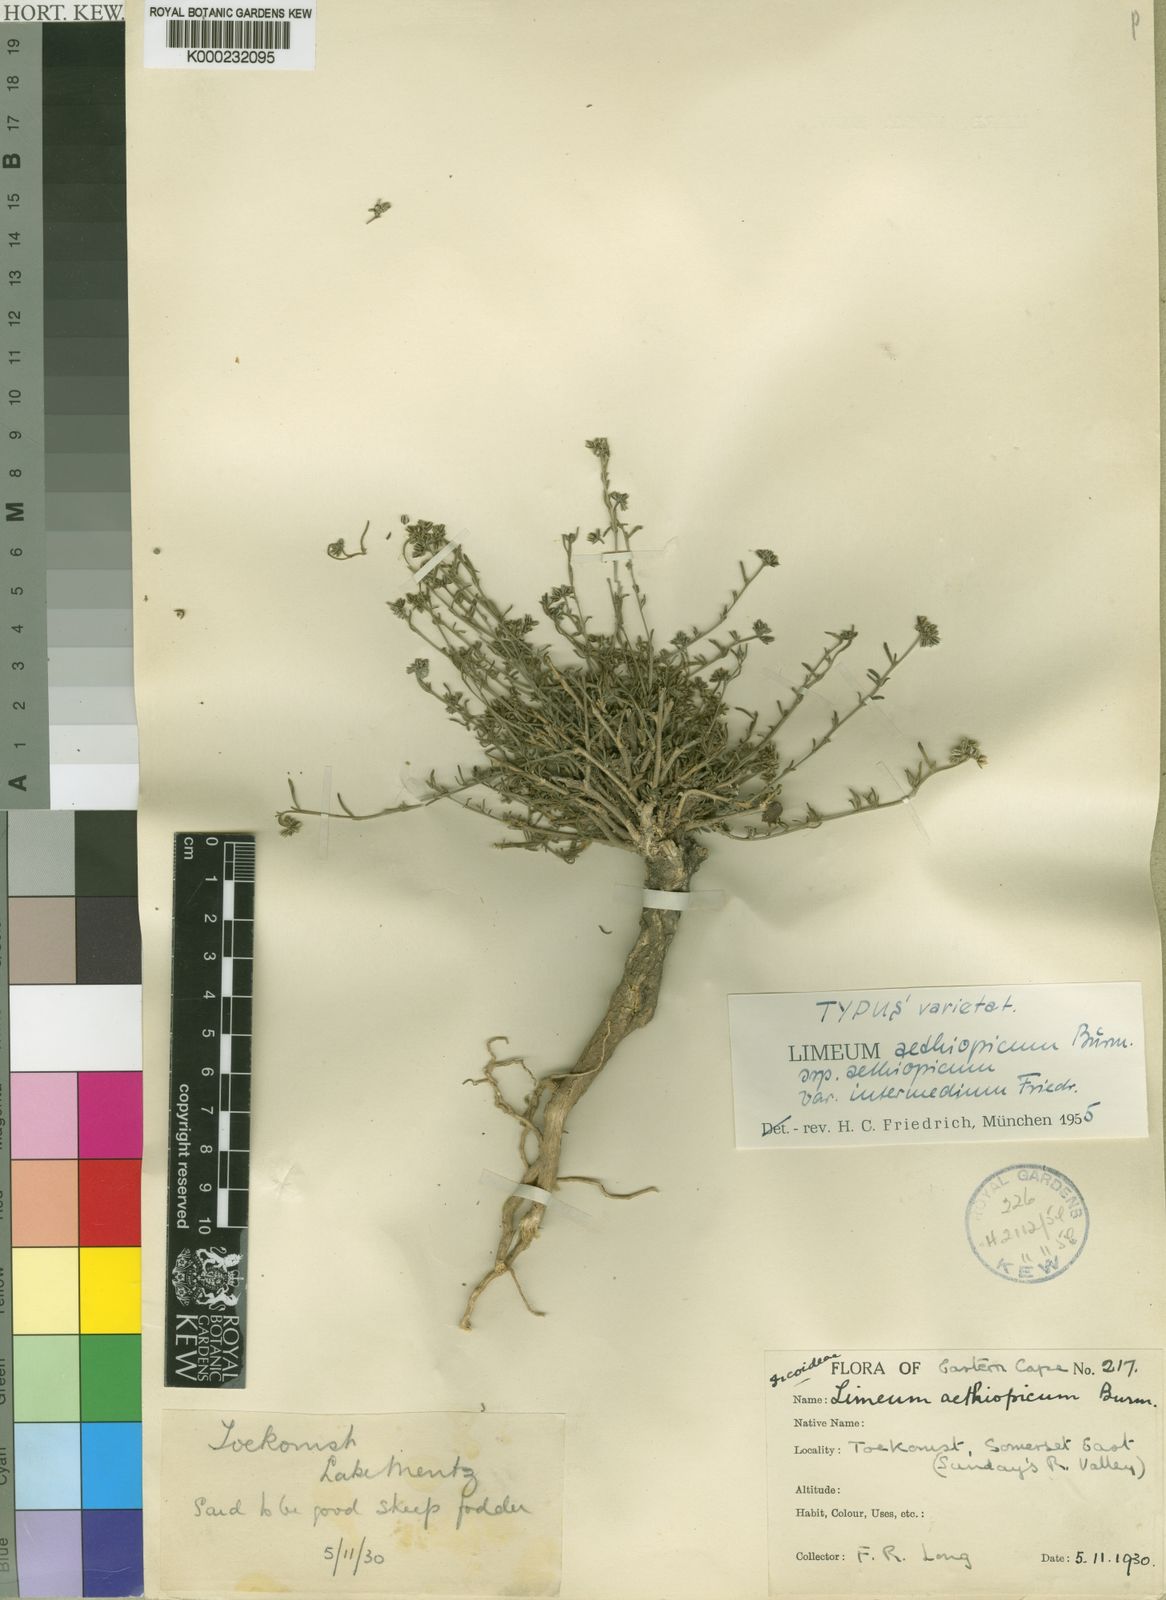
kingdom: Plantae
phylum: Tracheophyta
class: Magnoliopsida
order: Caryophyllales
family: Limeaceae
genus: Limeum
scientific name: Limeum aethiopicum
